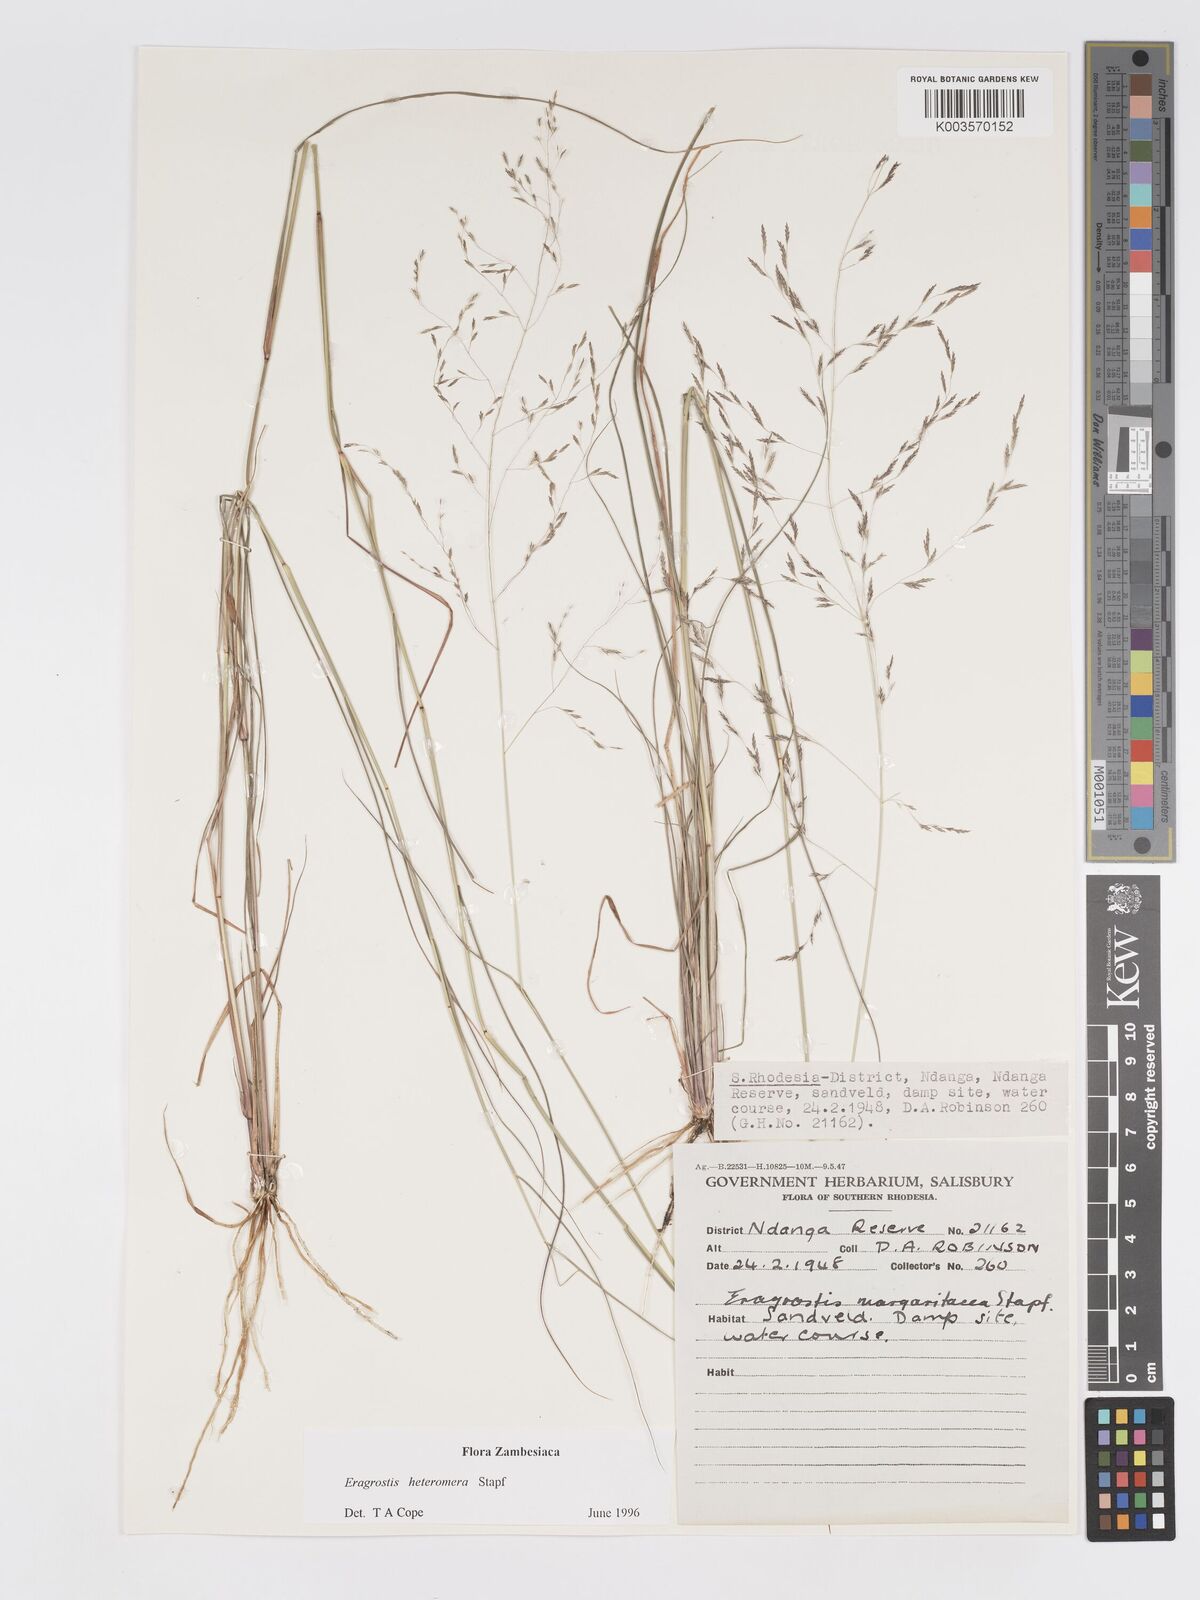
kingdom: Plantae
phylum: Tracheophyta
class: Liliopsida
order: Poales
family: Poaceae
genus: Eragrostis
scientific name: Eragrostis heteromera
